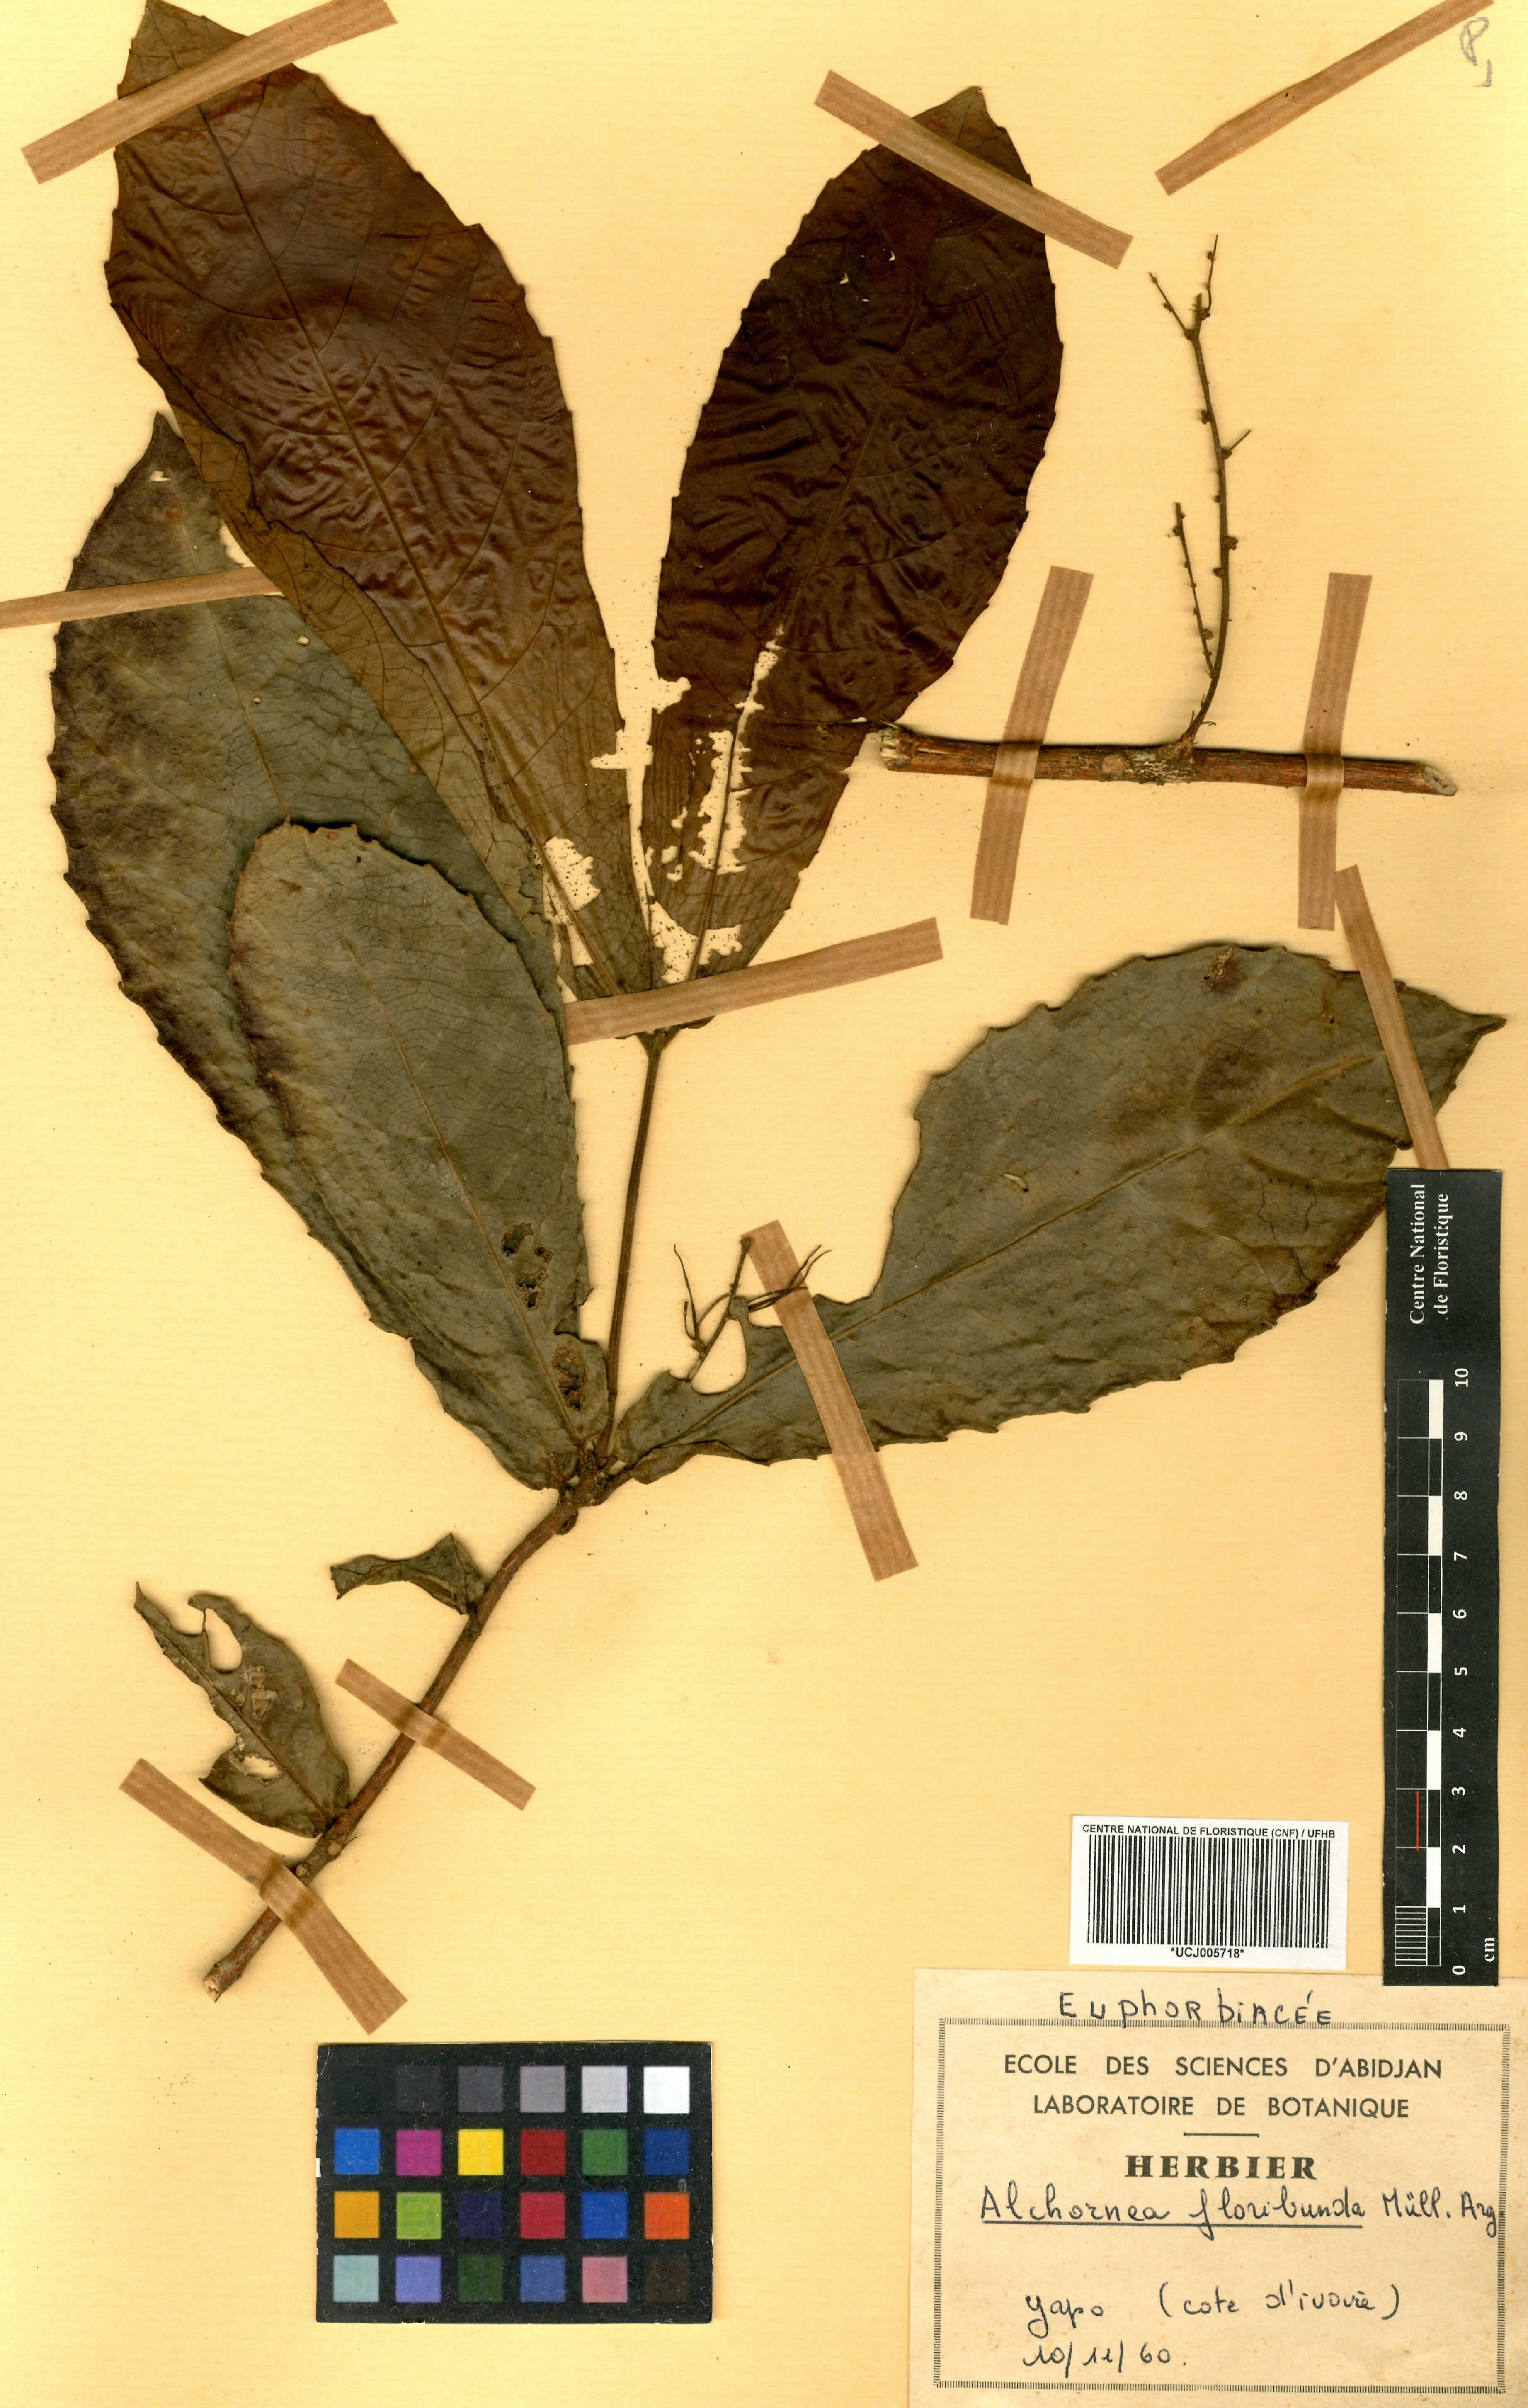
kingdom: Plantae
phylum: Tracheophyta
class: Magnoliopsida
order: Malpighiales
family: Euphorbiaceae
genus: Alchornea
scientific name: Alchornea floribunda
